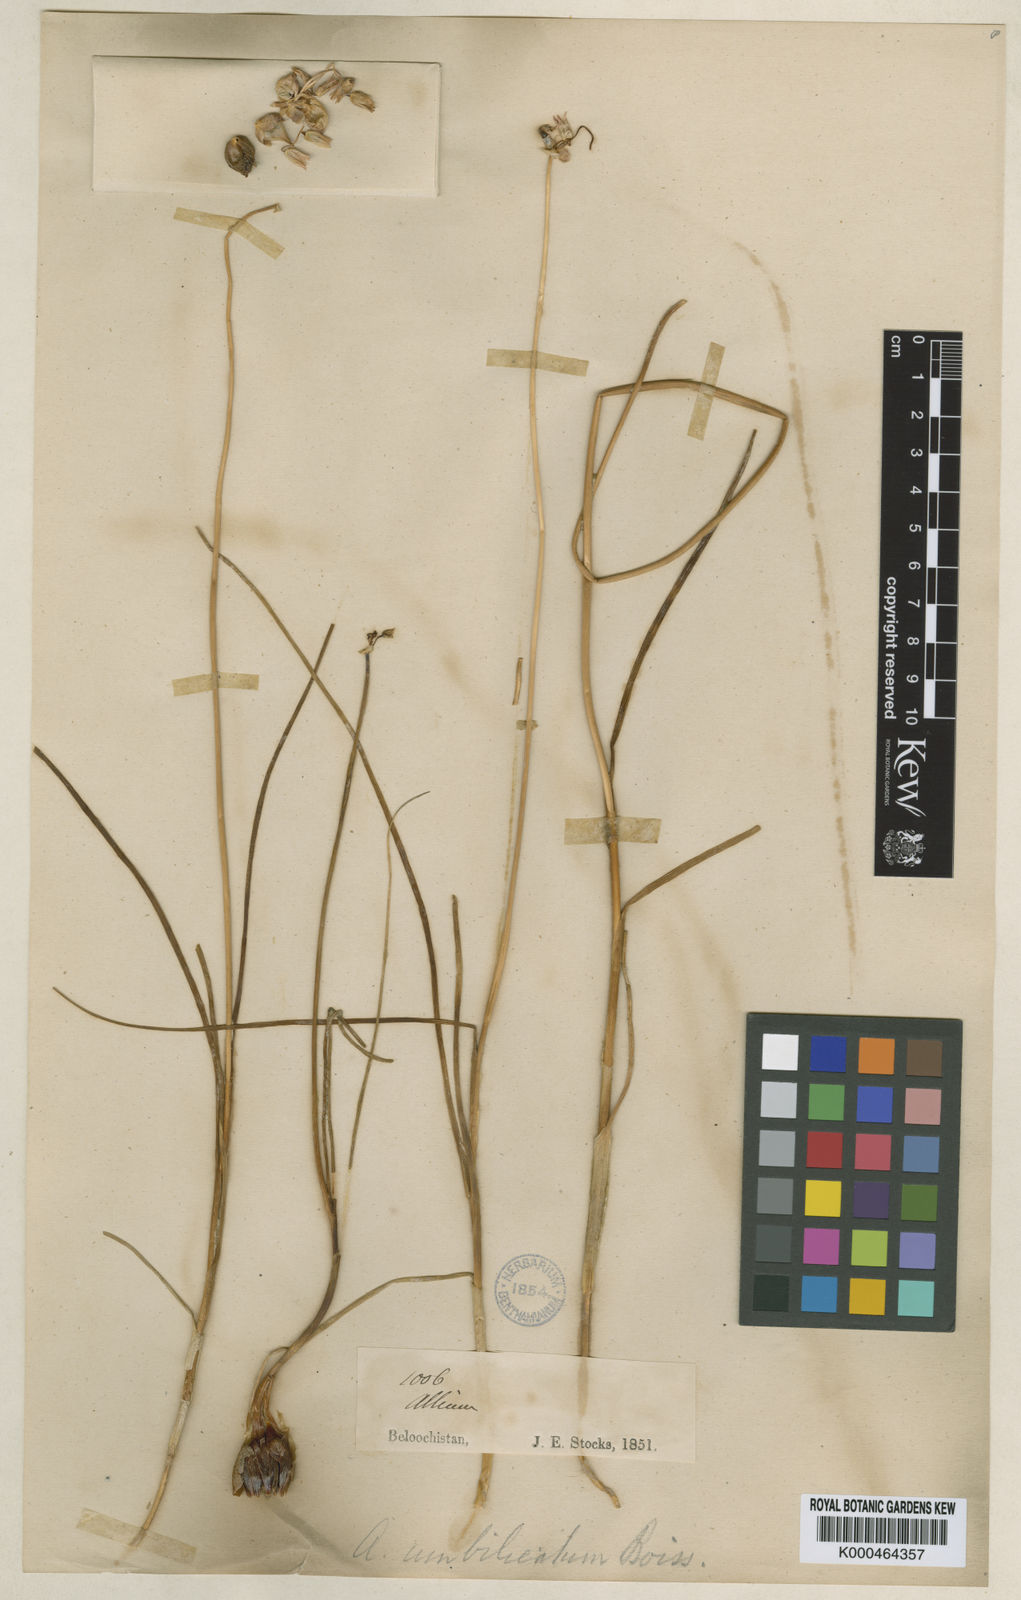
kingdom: Plantae
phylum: Tracheophyta
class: Liliopsida
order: Asparagales
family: Amaryllidaceae
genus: Allium
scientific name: Allium umbilicatum
